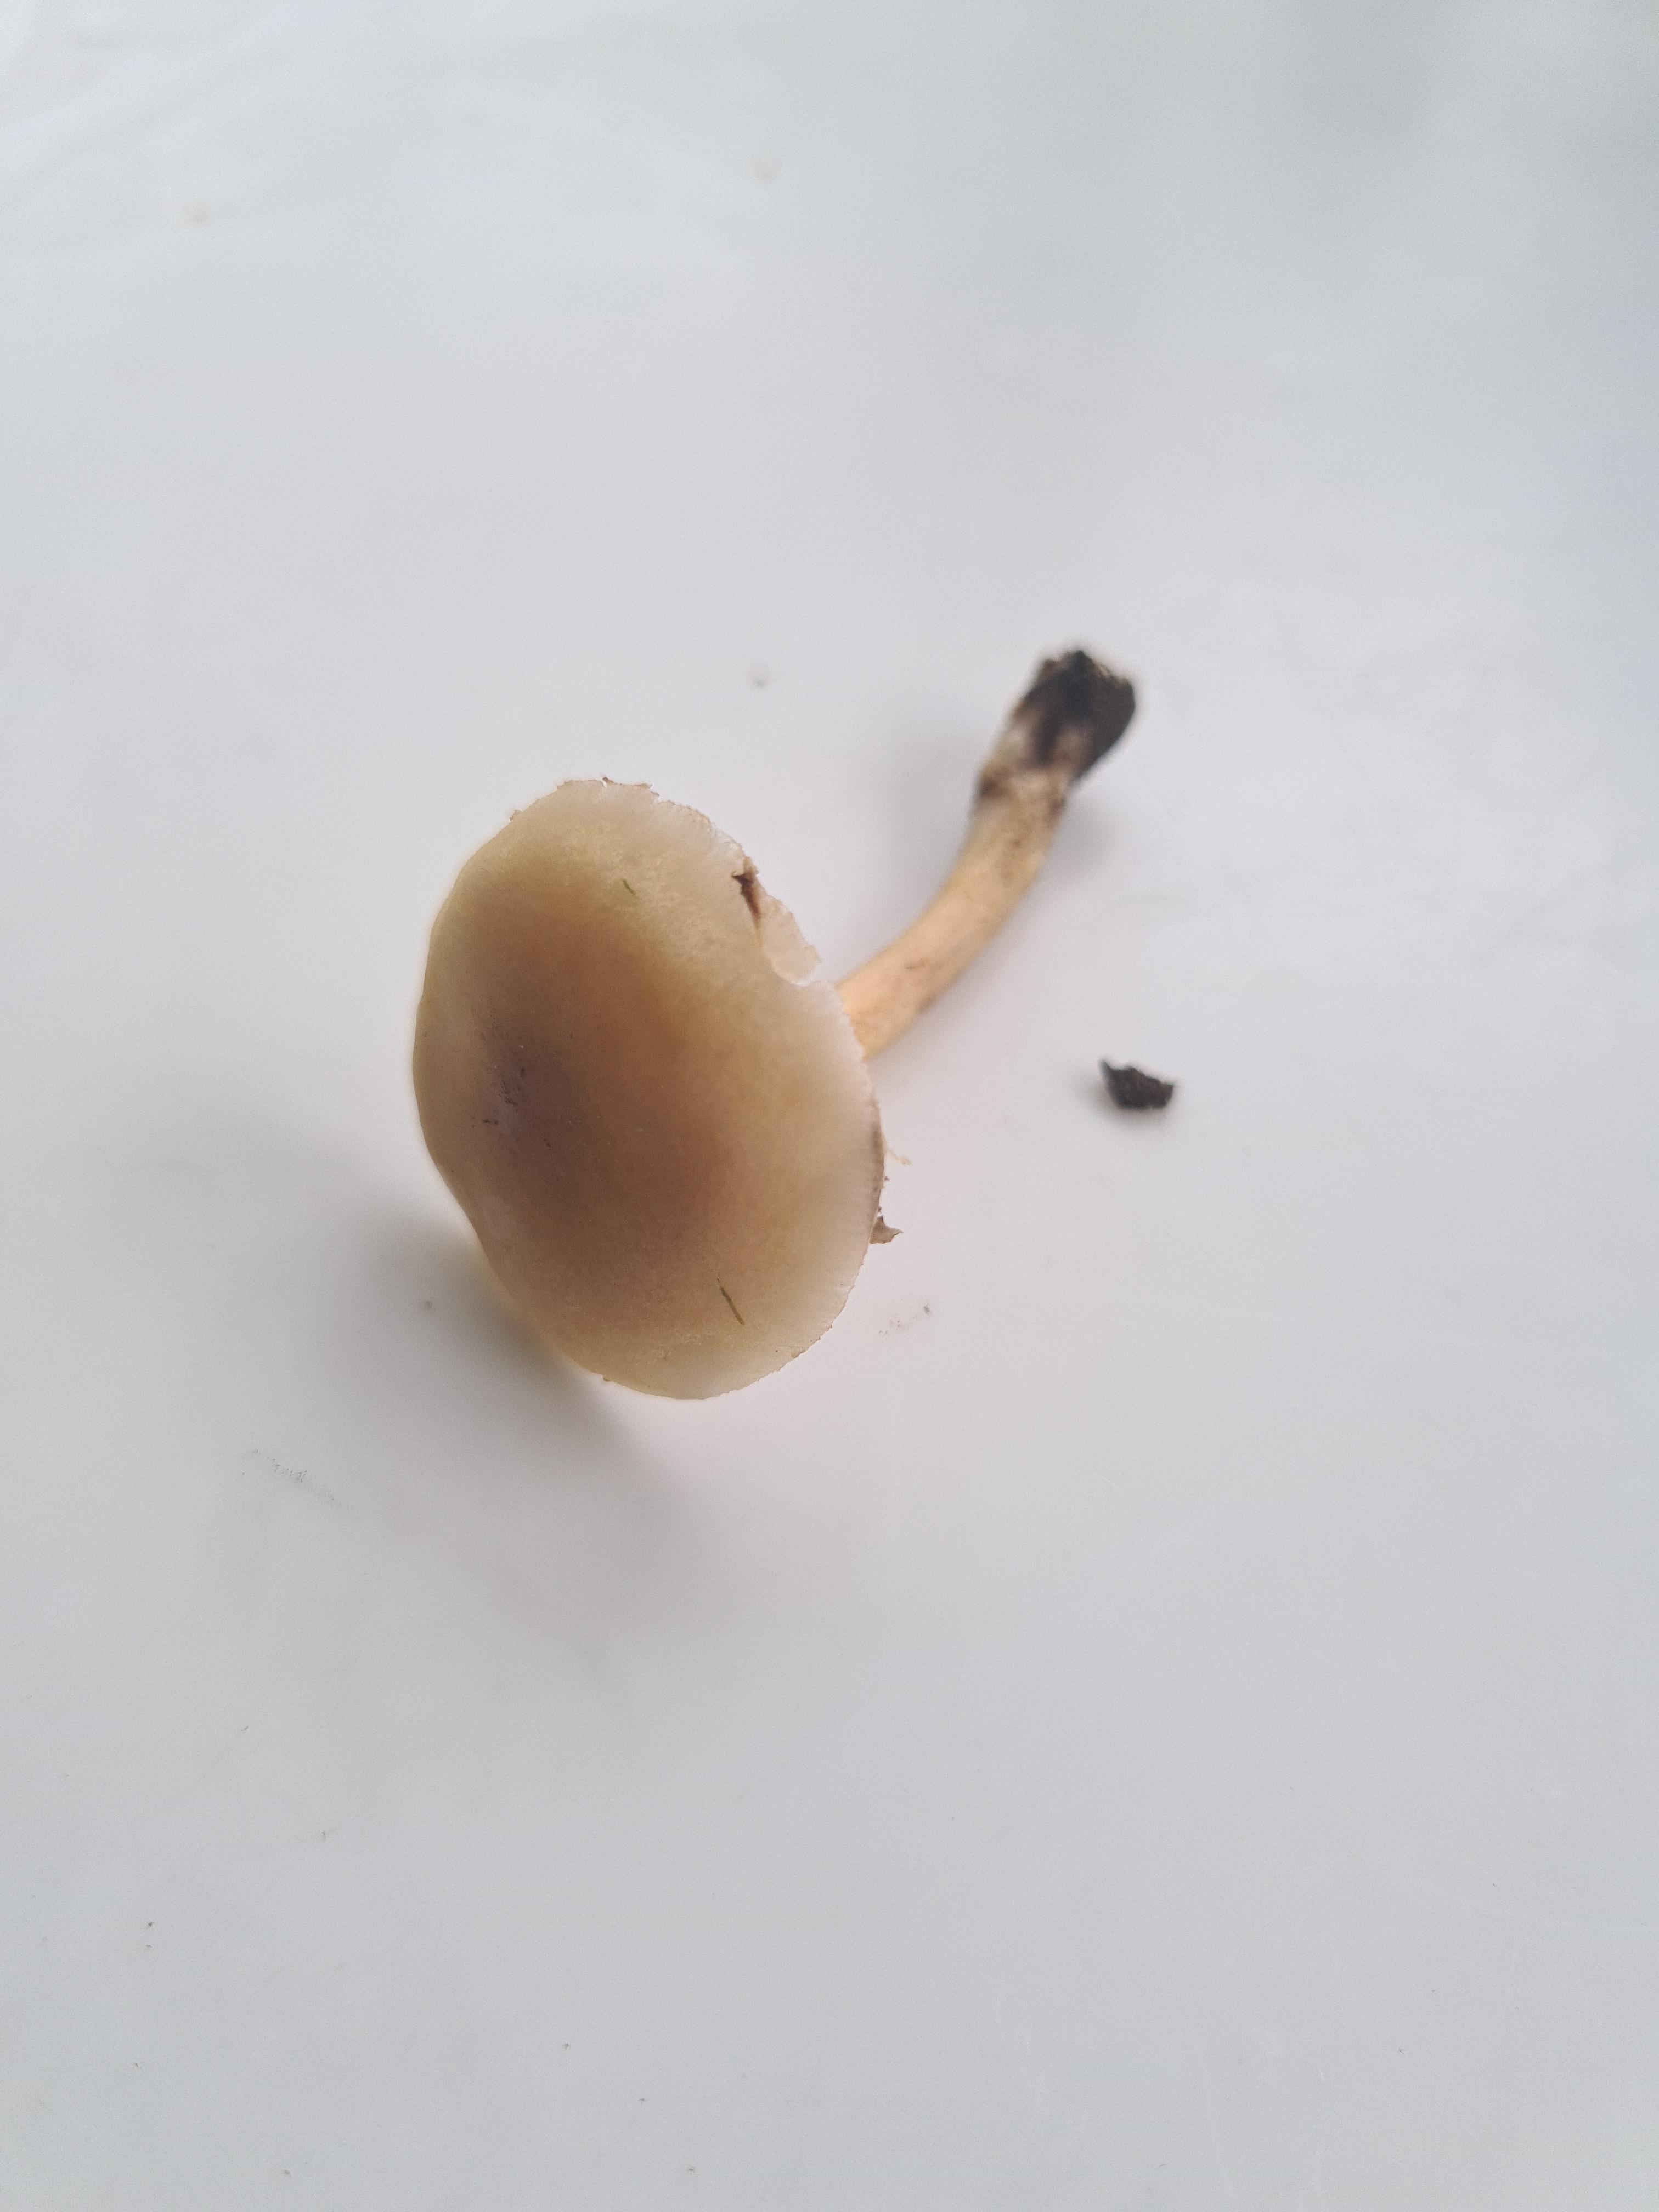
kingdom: Fungi
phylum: Basidiomycota
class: Agaricomycetes
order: Agaricales
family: Strophariaceae
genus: Agrocybe
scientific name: Agrocybe pediades
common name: almindelig agerhat
